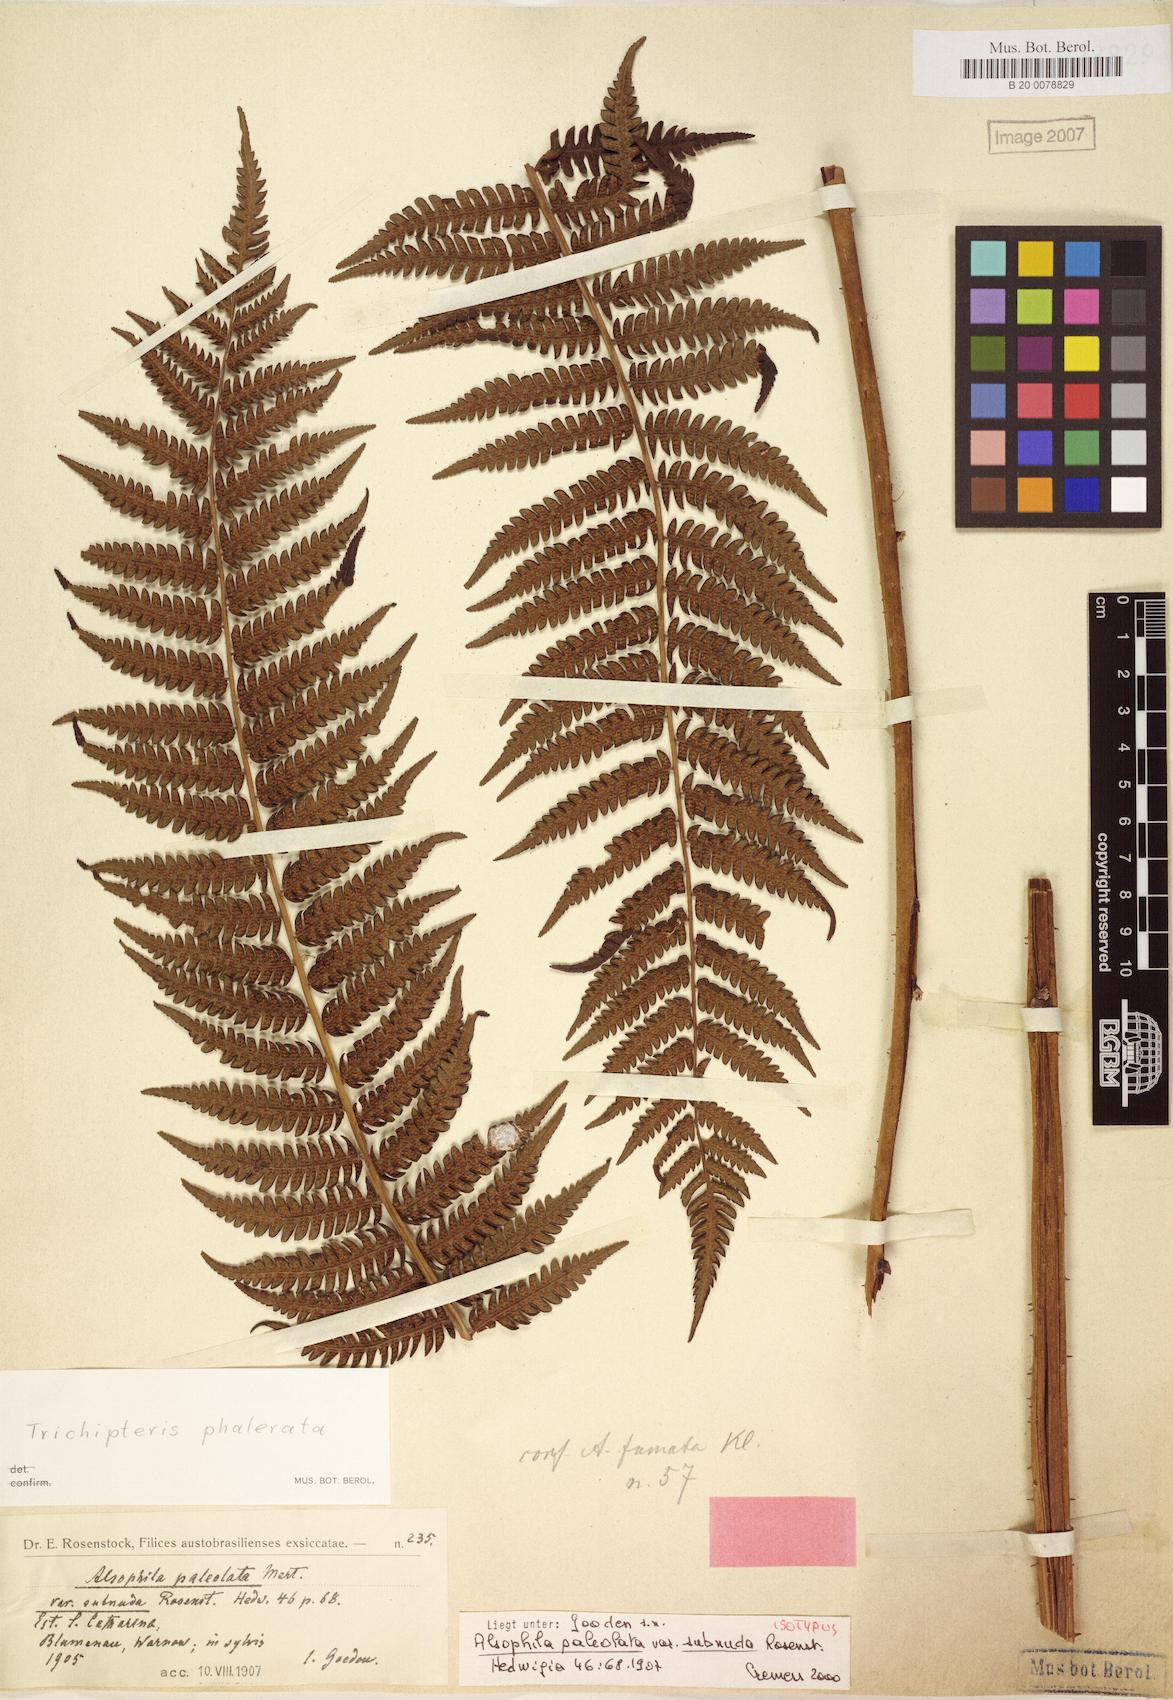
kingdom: Plantae
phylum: Tracheophyta
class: Polypodiopsida
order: Cyatheales
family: Cyatheaceae
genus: Cyathea
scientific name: Cyathea phalerata
